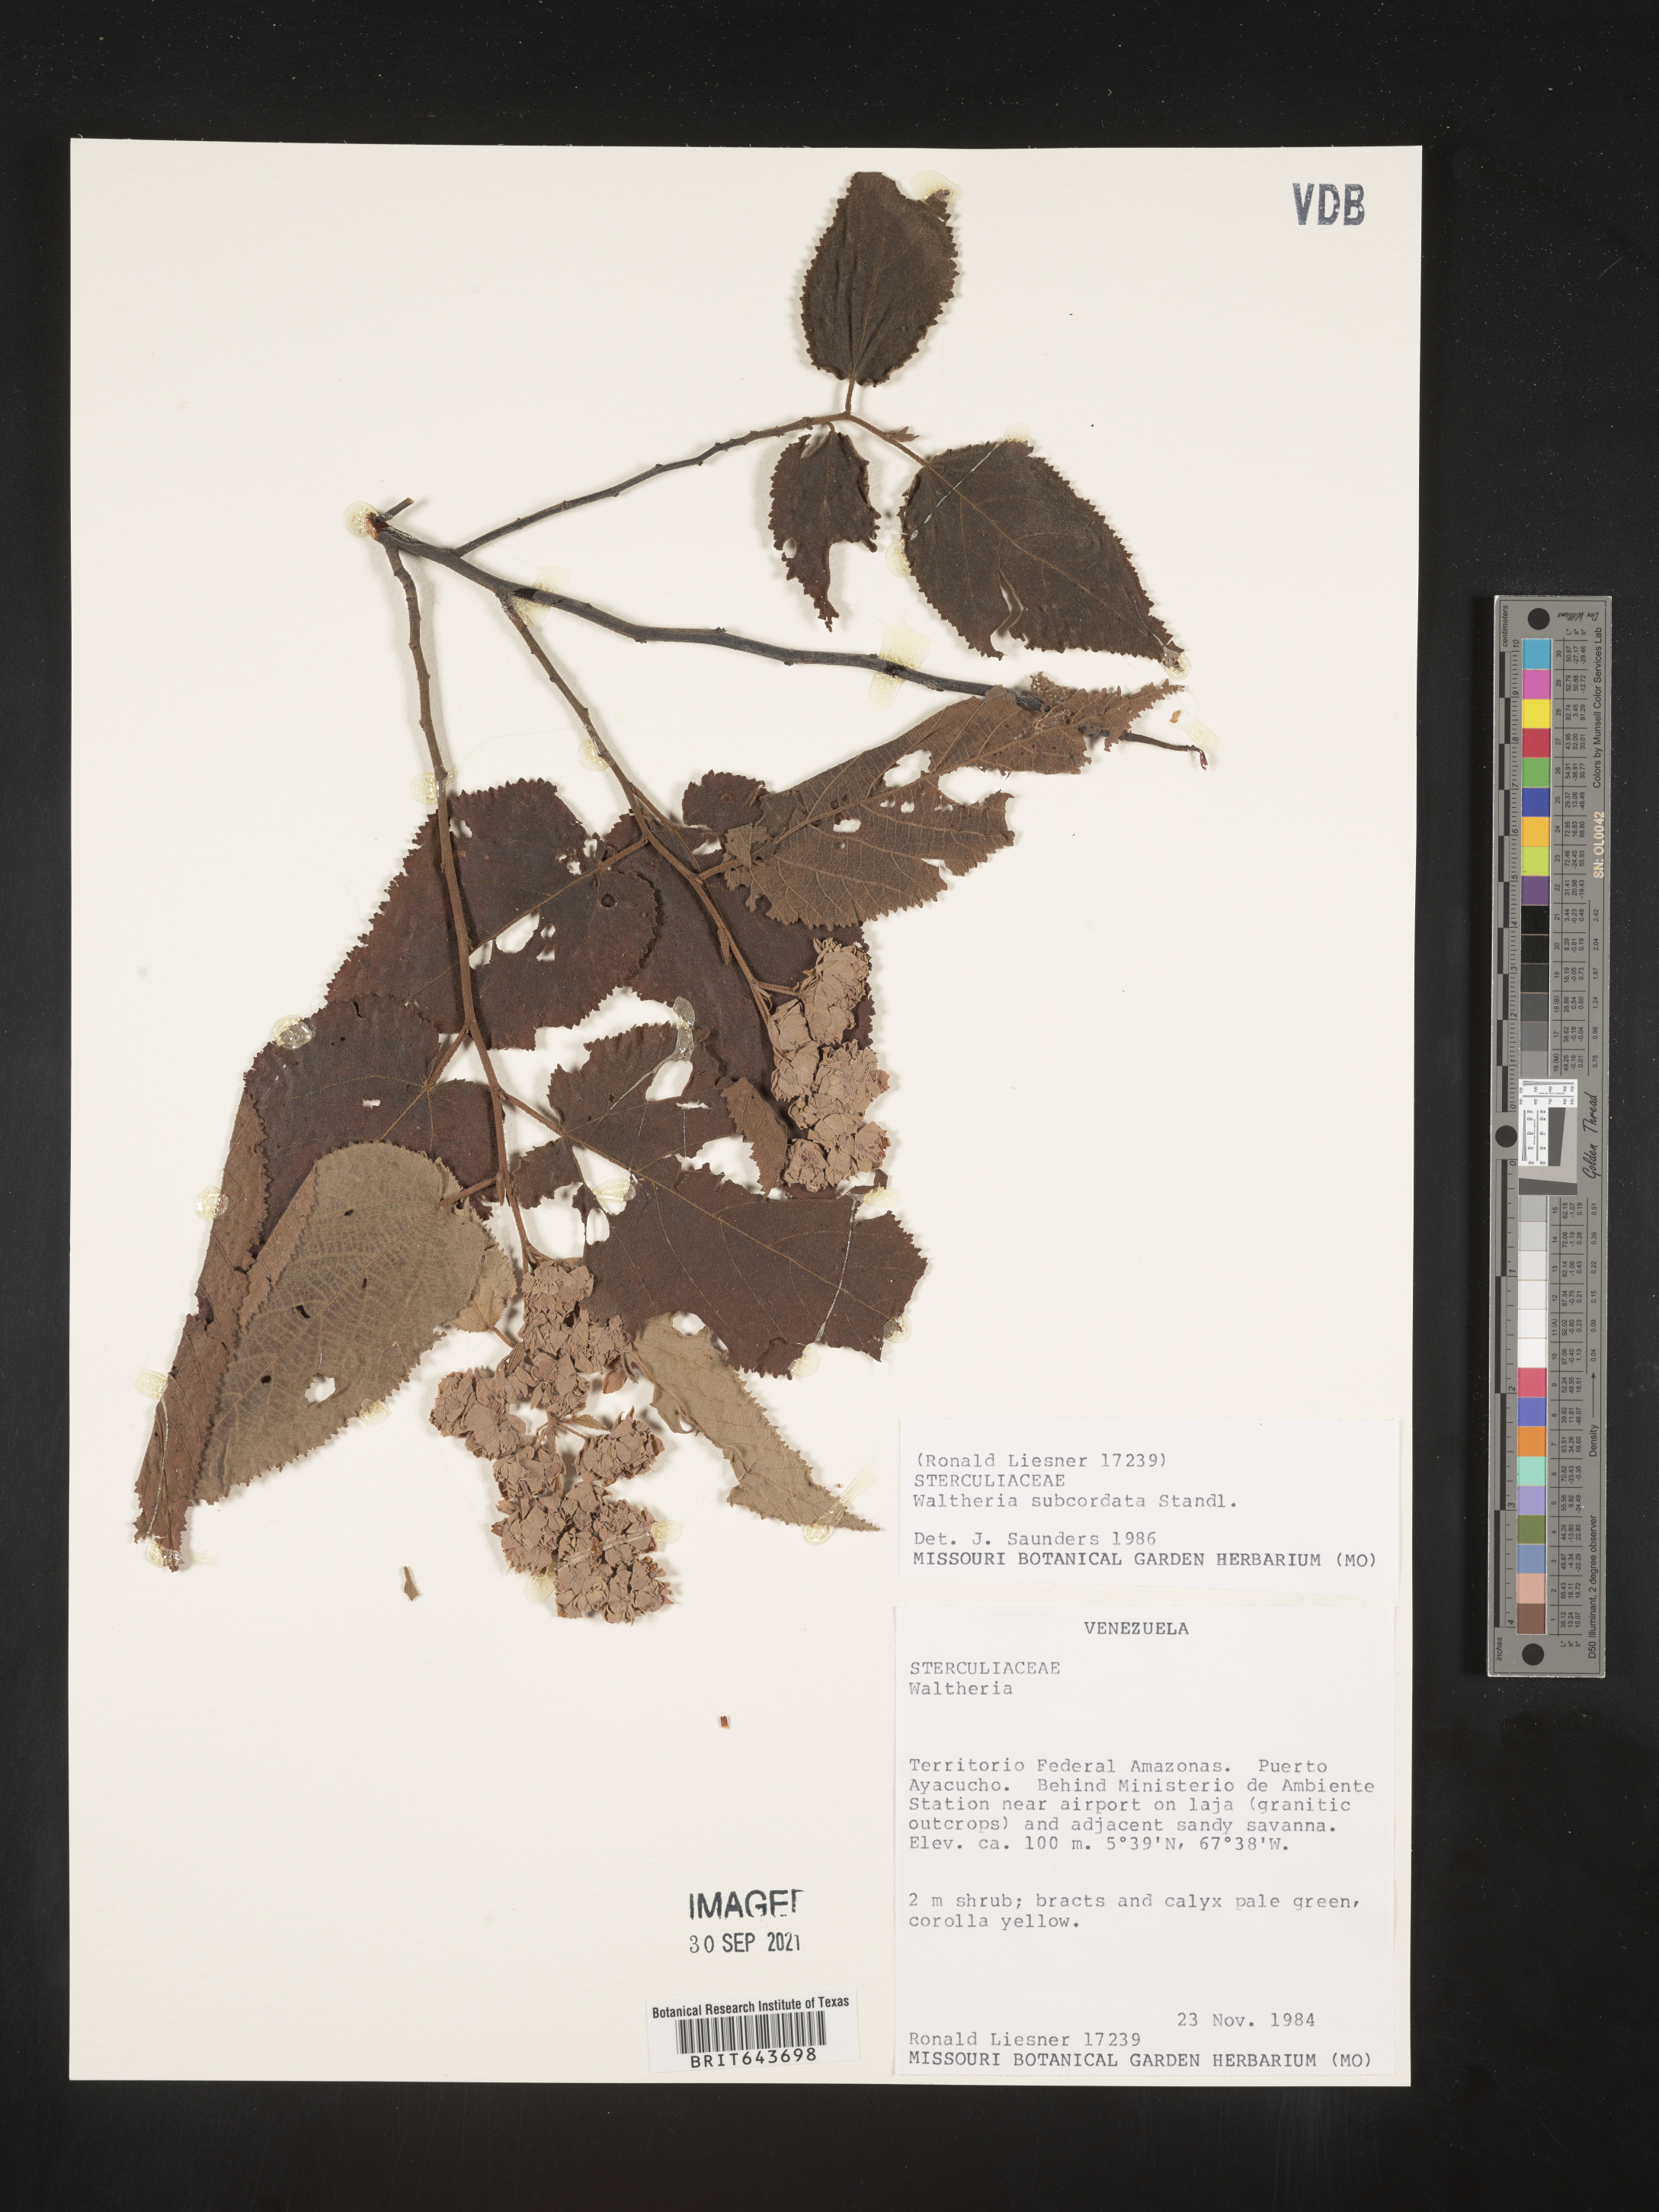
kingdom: Plantae
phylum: Tracheophyta
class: Magnoliopsida
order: Malvales
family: Malvaceae
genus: Waltheria
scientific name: Waltheria
